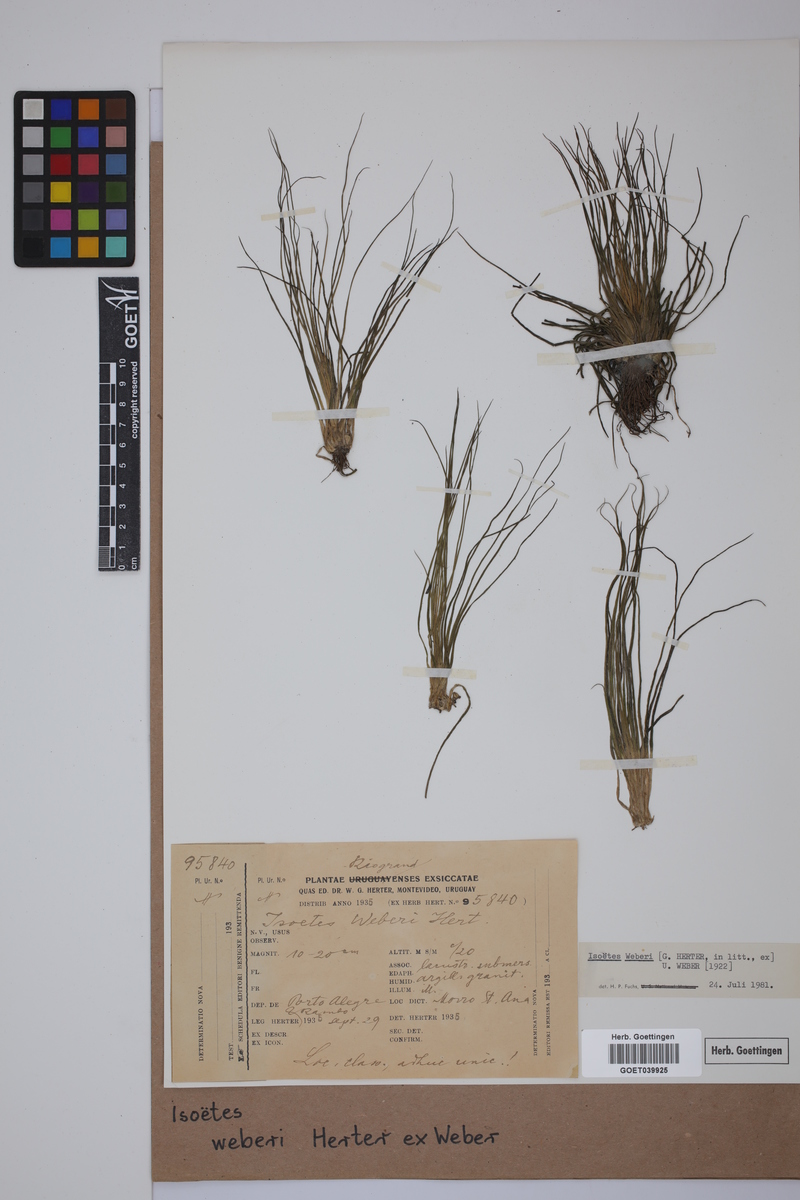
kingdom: Plantae
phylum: Tracheophyta
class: Lycopodiopsida
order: Isoetales
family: Isoetaceae
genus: Isoetes
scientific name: Isoetes weberi
